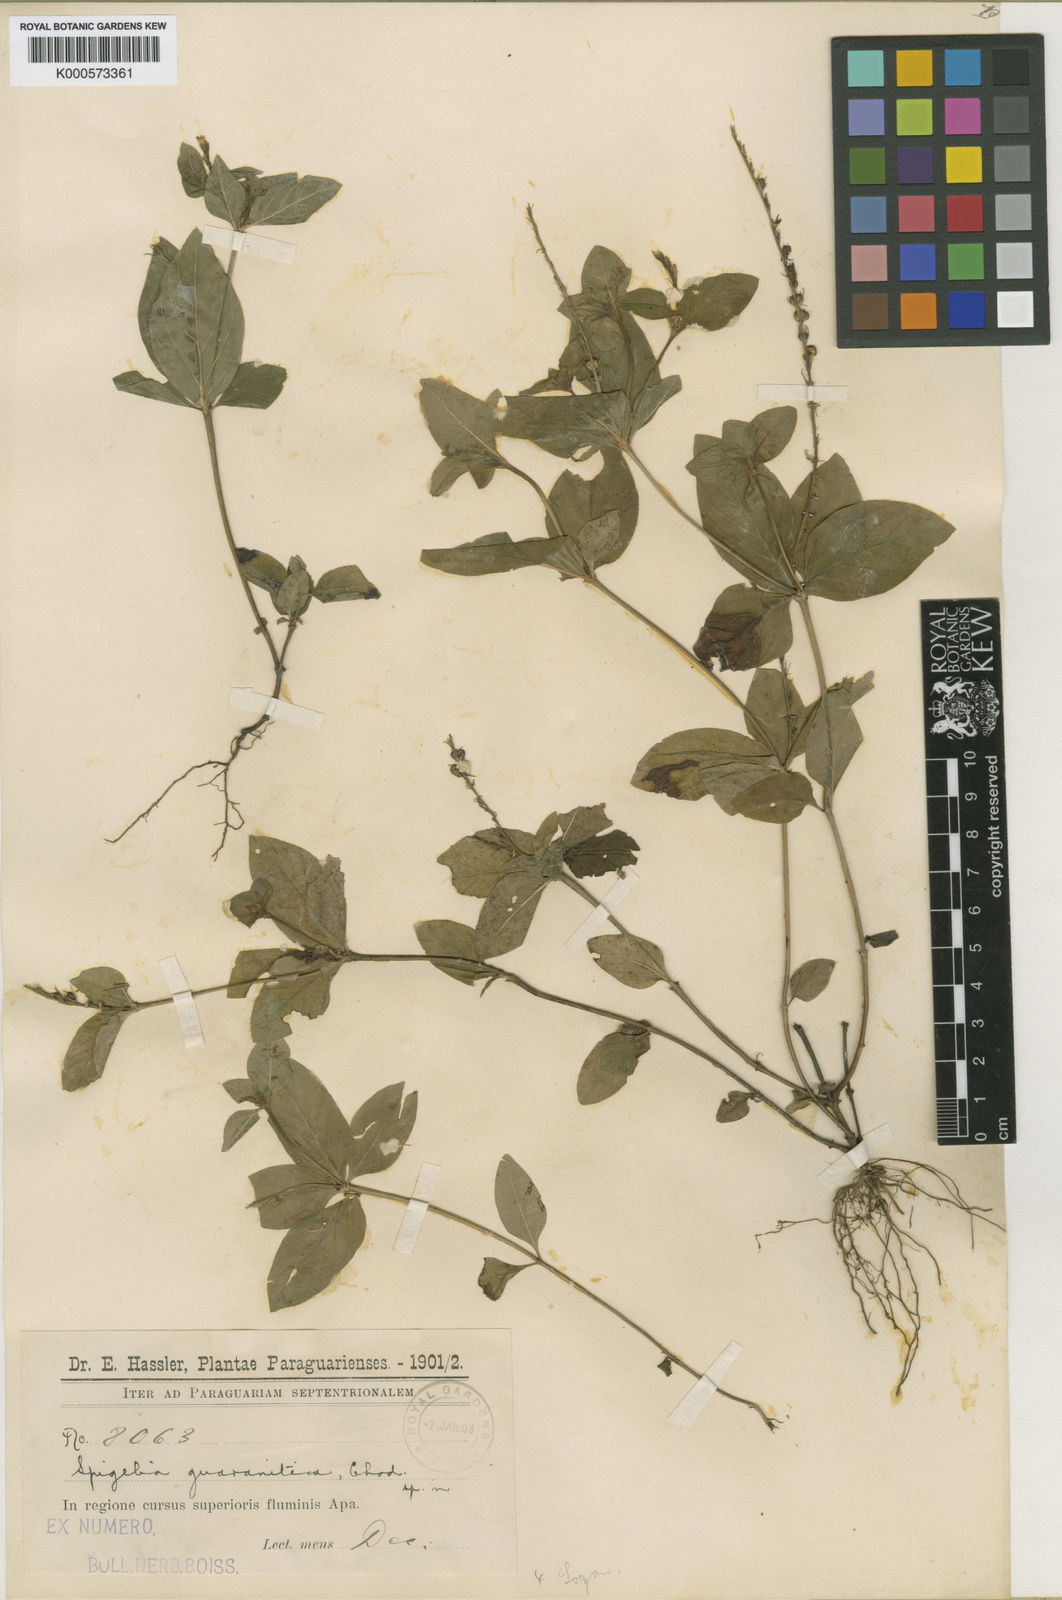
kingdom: Plantae
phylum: Tracheophyta
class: Magnoliopsida
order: Gentianales
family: Loganiaceae
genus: Spigelia
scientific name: Spigelia humboldtiana
